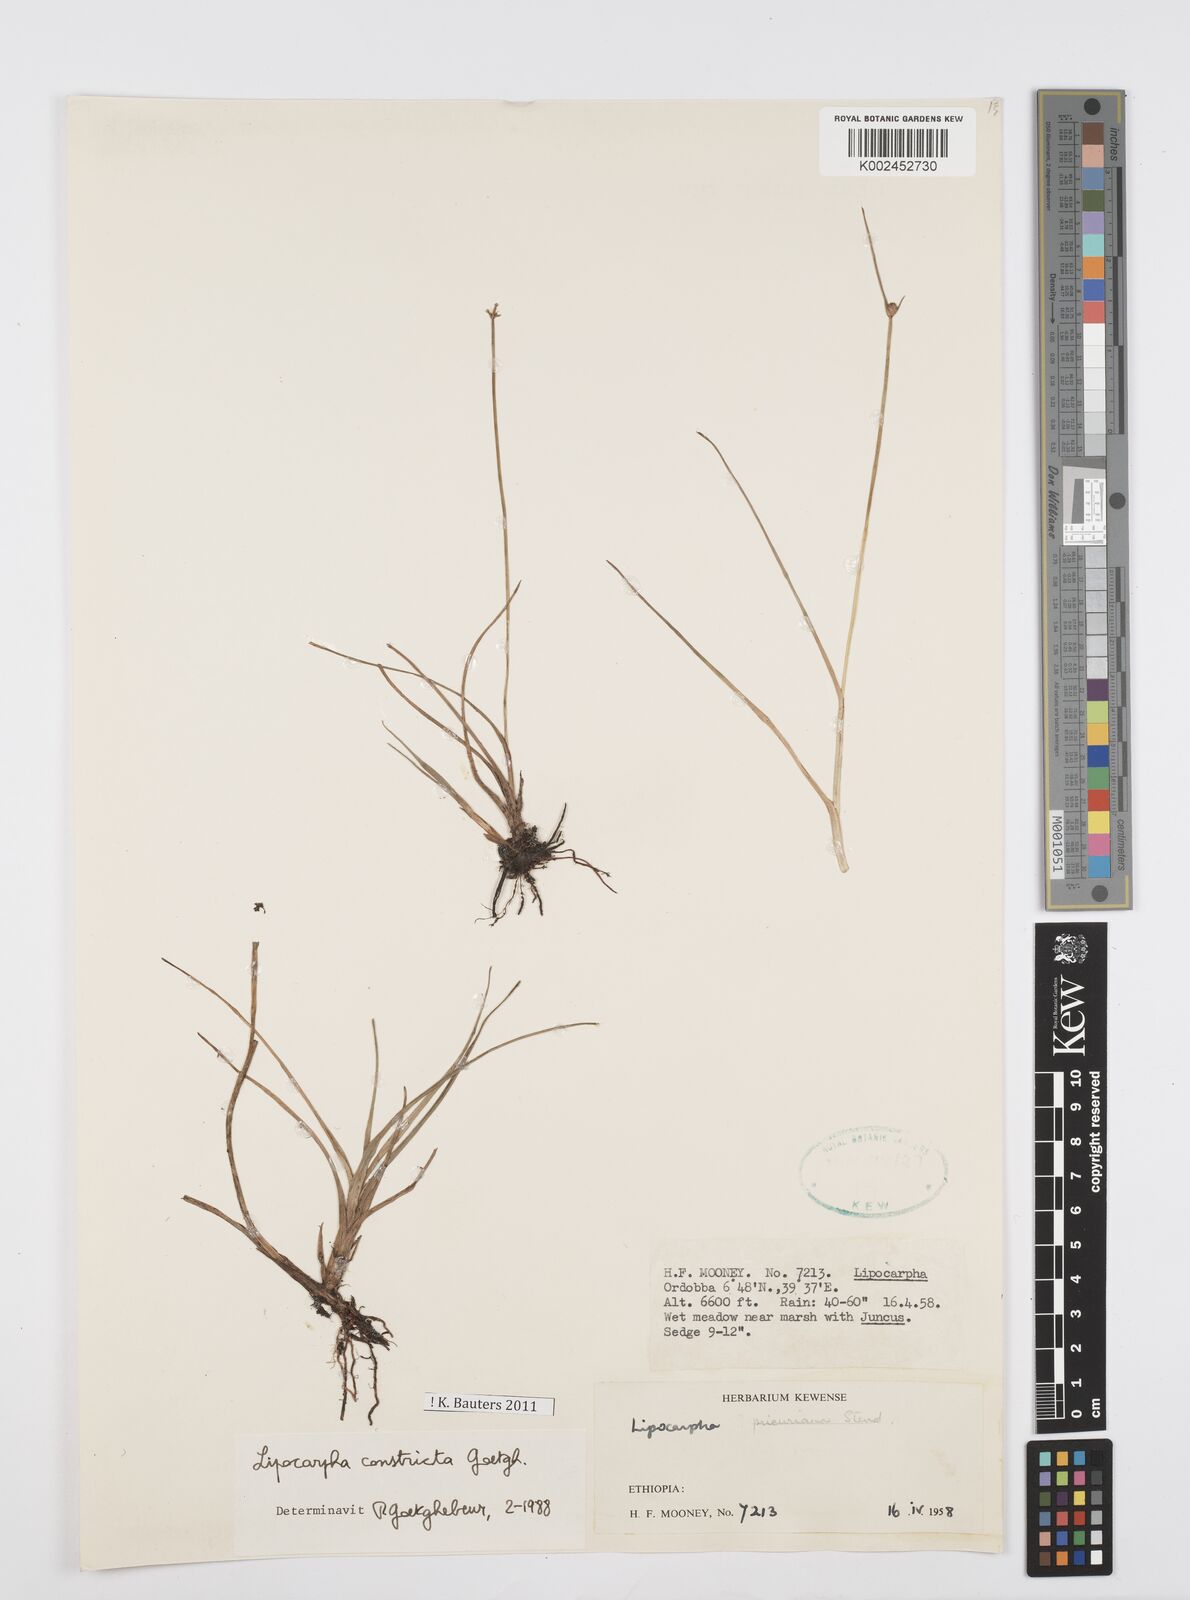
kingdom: Plantae
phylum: Tracheophyta
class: Liliopsida
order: Poales
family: Cyperaceae
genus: Cyperus
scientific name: Cyperus constrictus
